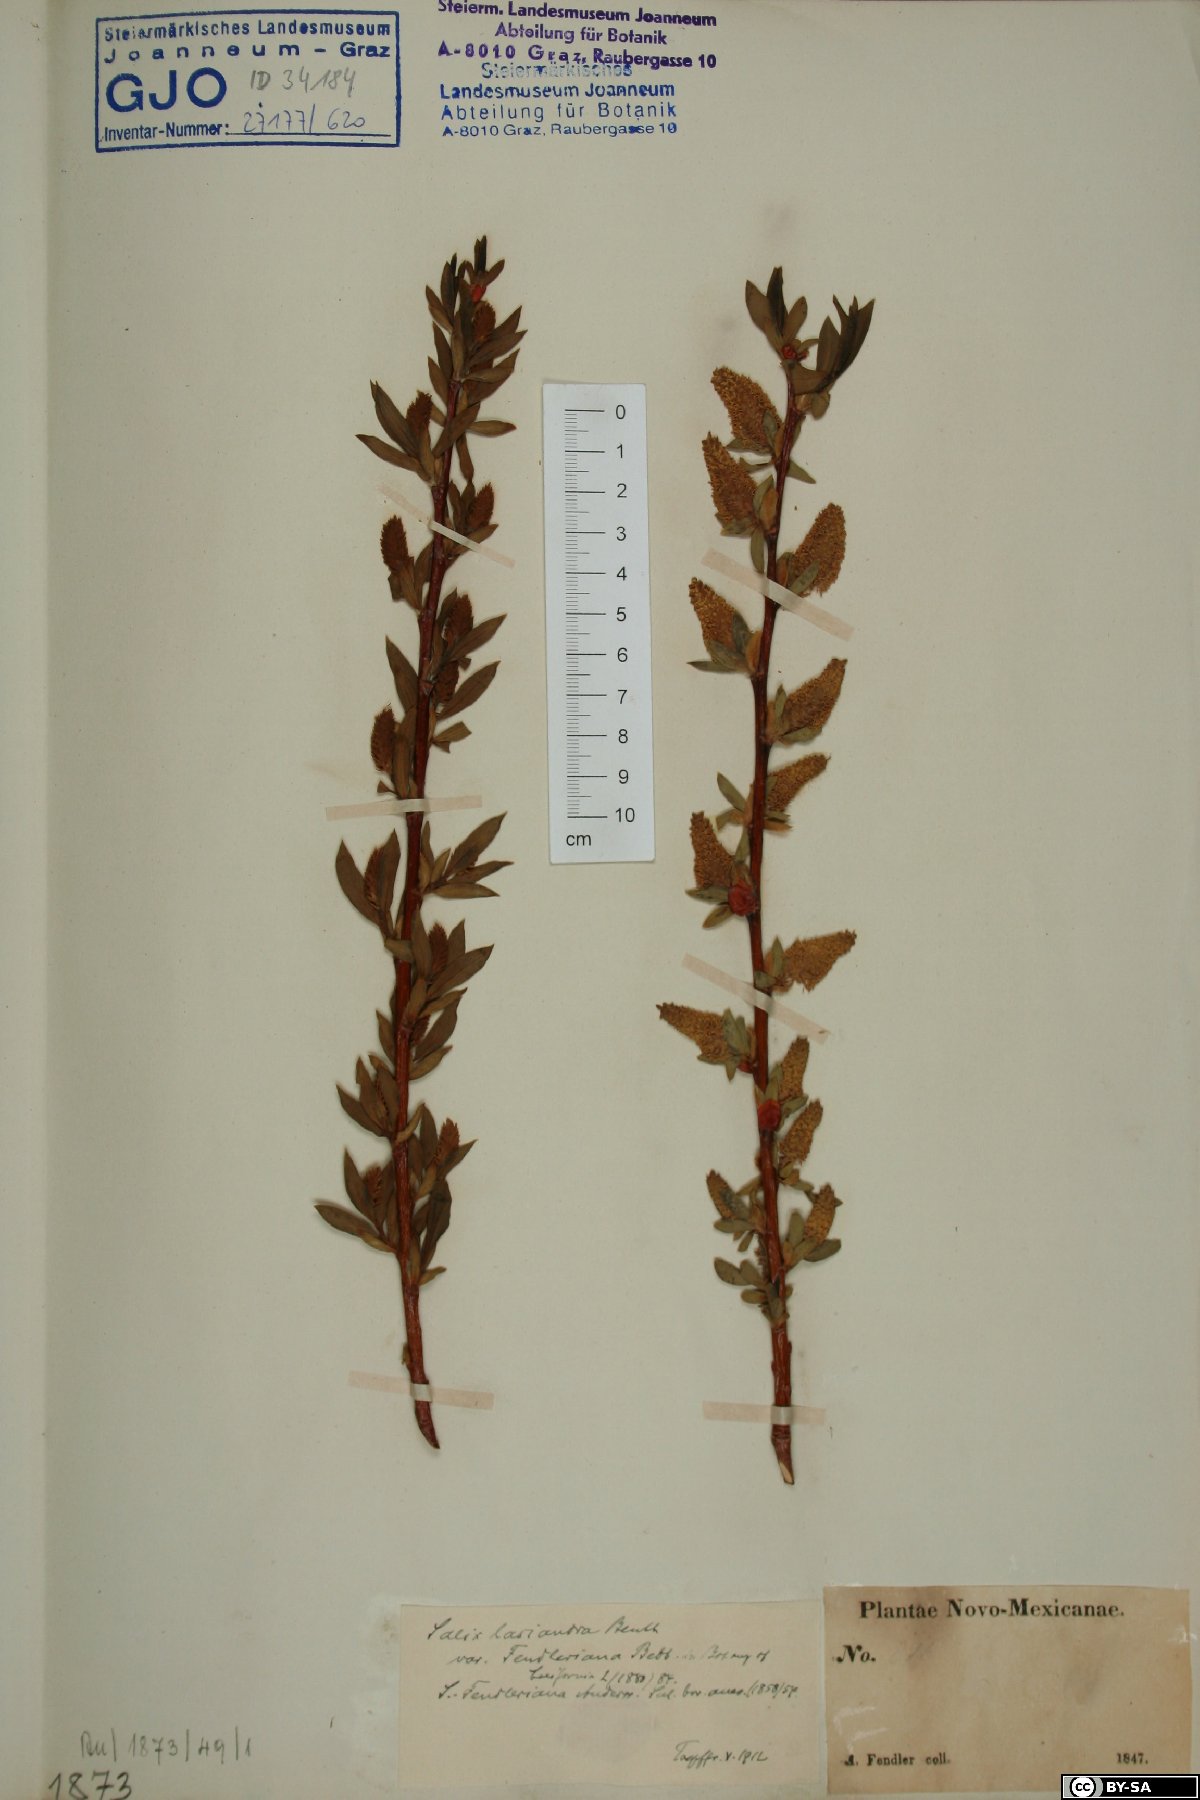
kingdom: Plantae
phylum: Tracheophyta
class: Magnoliopsida
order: Malpighiales
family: Salicaceae
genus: Salix
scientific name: Salix lucida
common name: Shining willow
